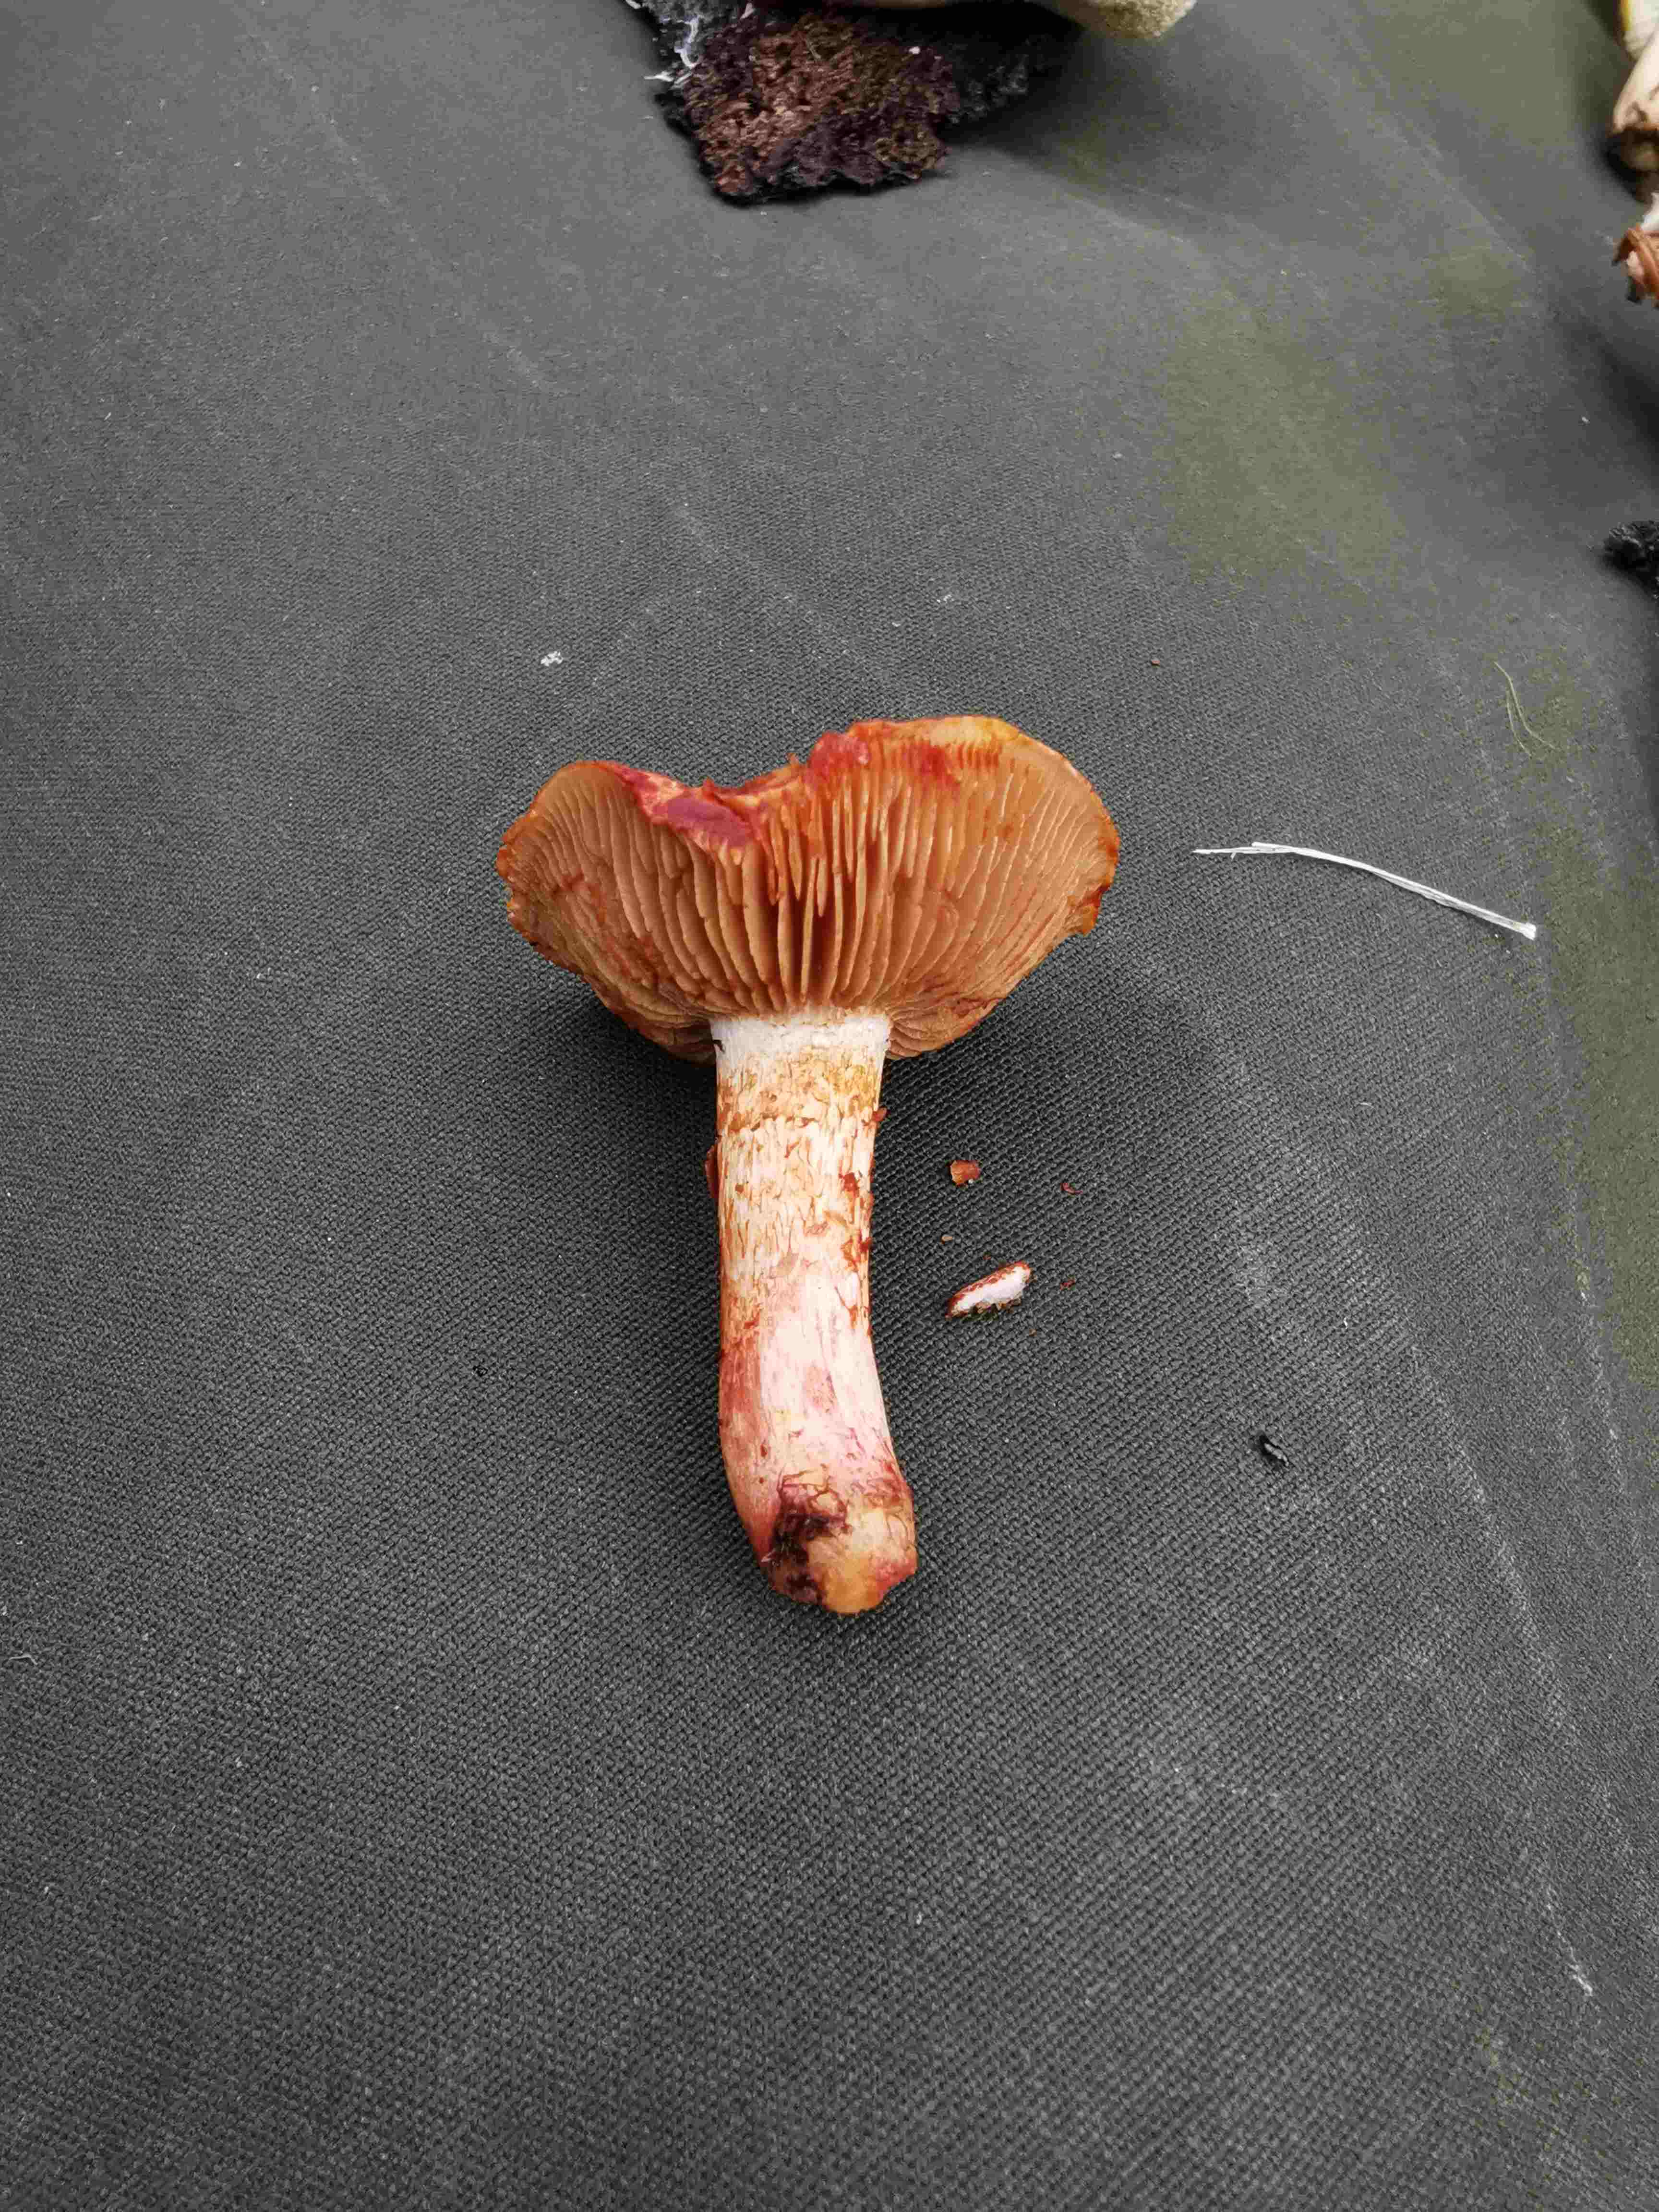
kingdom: Fungi
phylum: Basidiomycota
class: Agaricomycetes
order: Agaricales
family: Cortinariaceae
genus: Cortinarius
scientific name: Cortinarius bolaris
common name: cinnoberskællet slørhat
